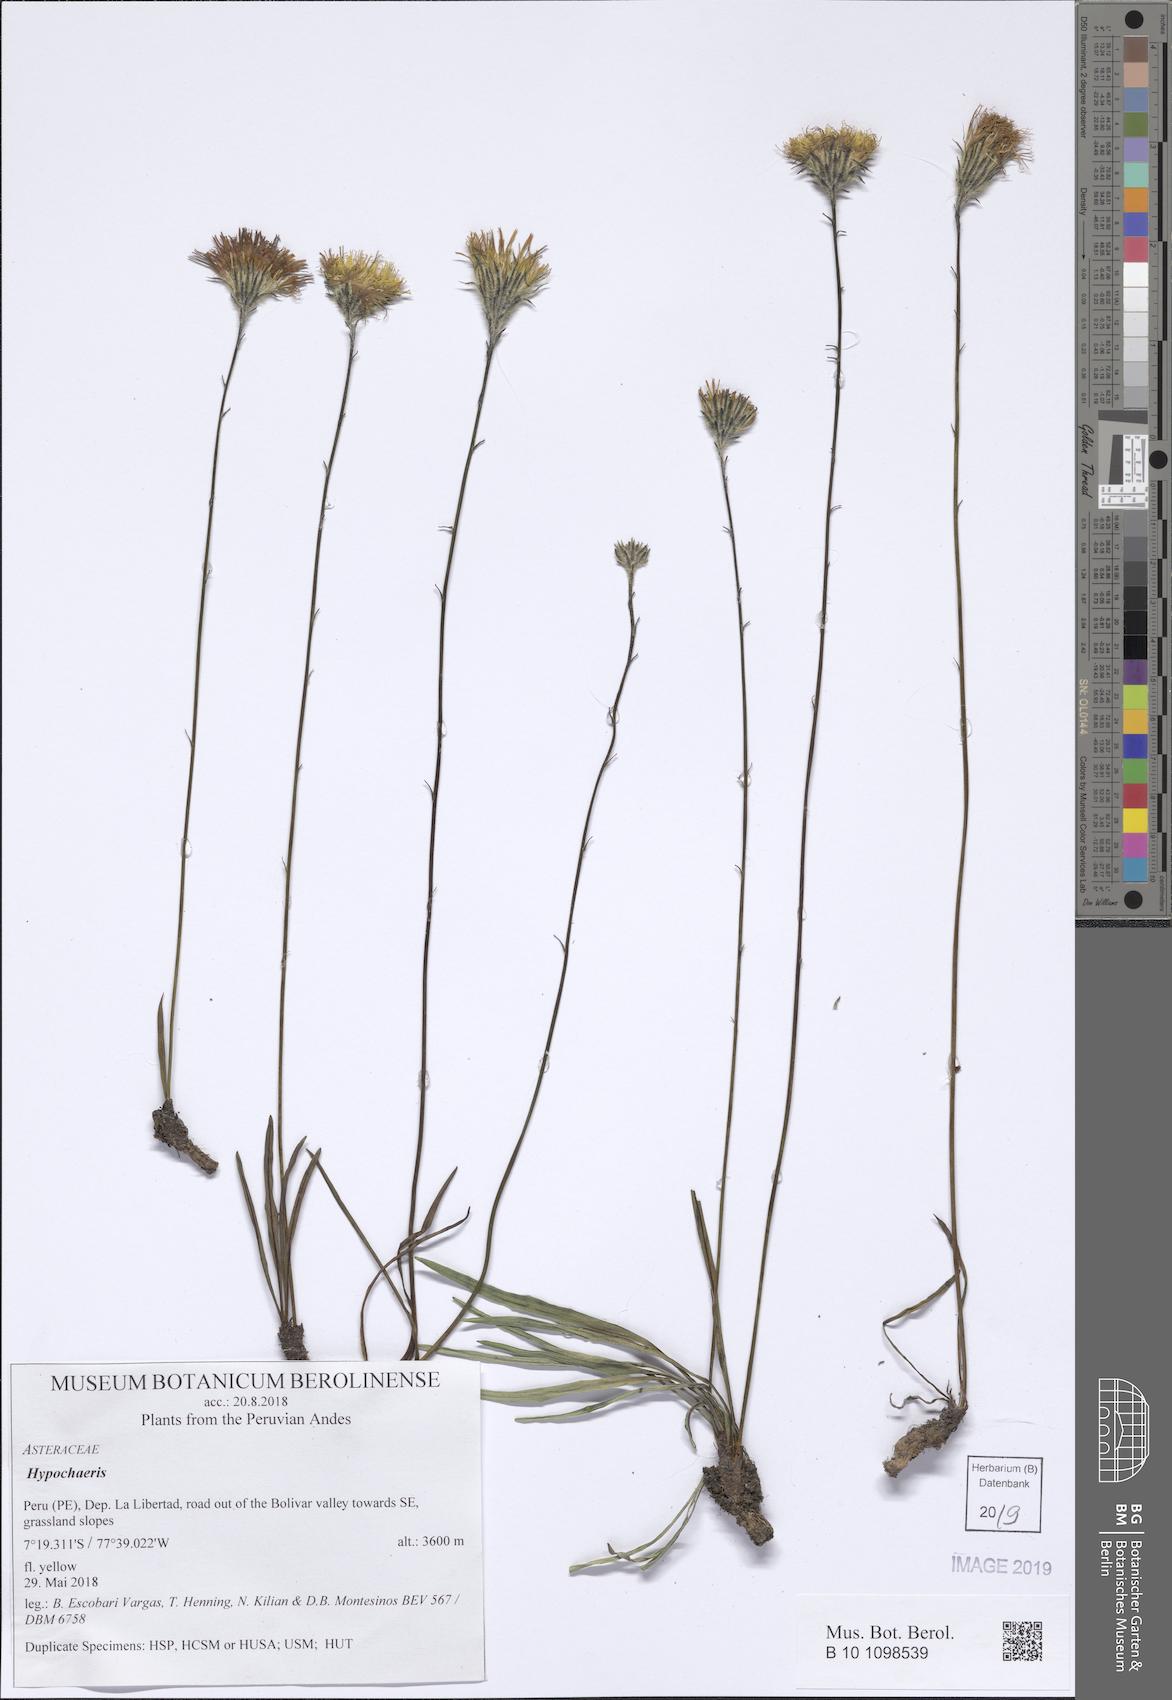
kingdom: Plantae
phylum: Tracheophyta
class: Magnoliopsida
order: Asterales
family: Asteraceae
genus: Hypochaeris
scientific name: Hypochaeris
